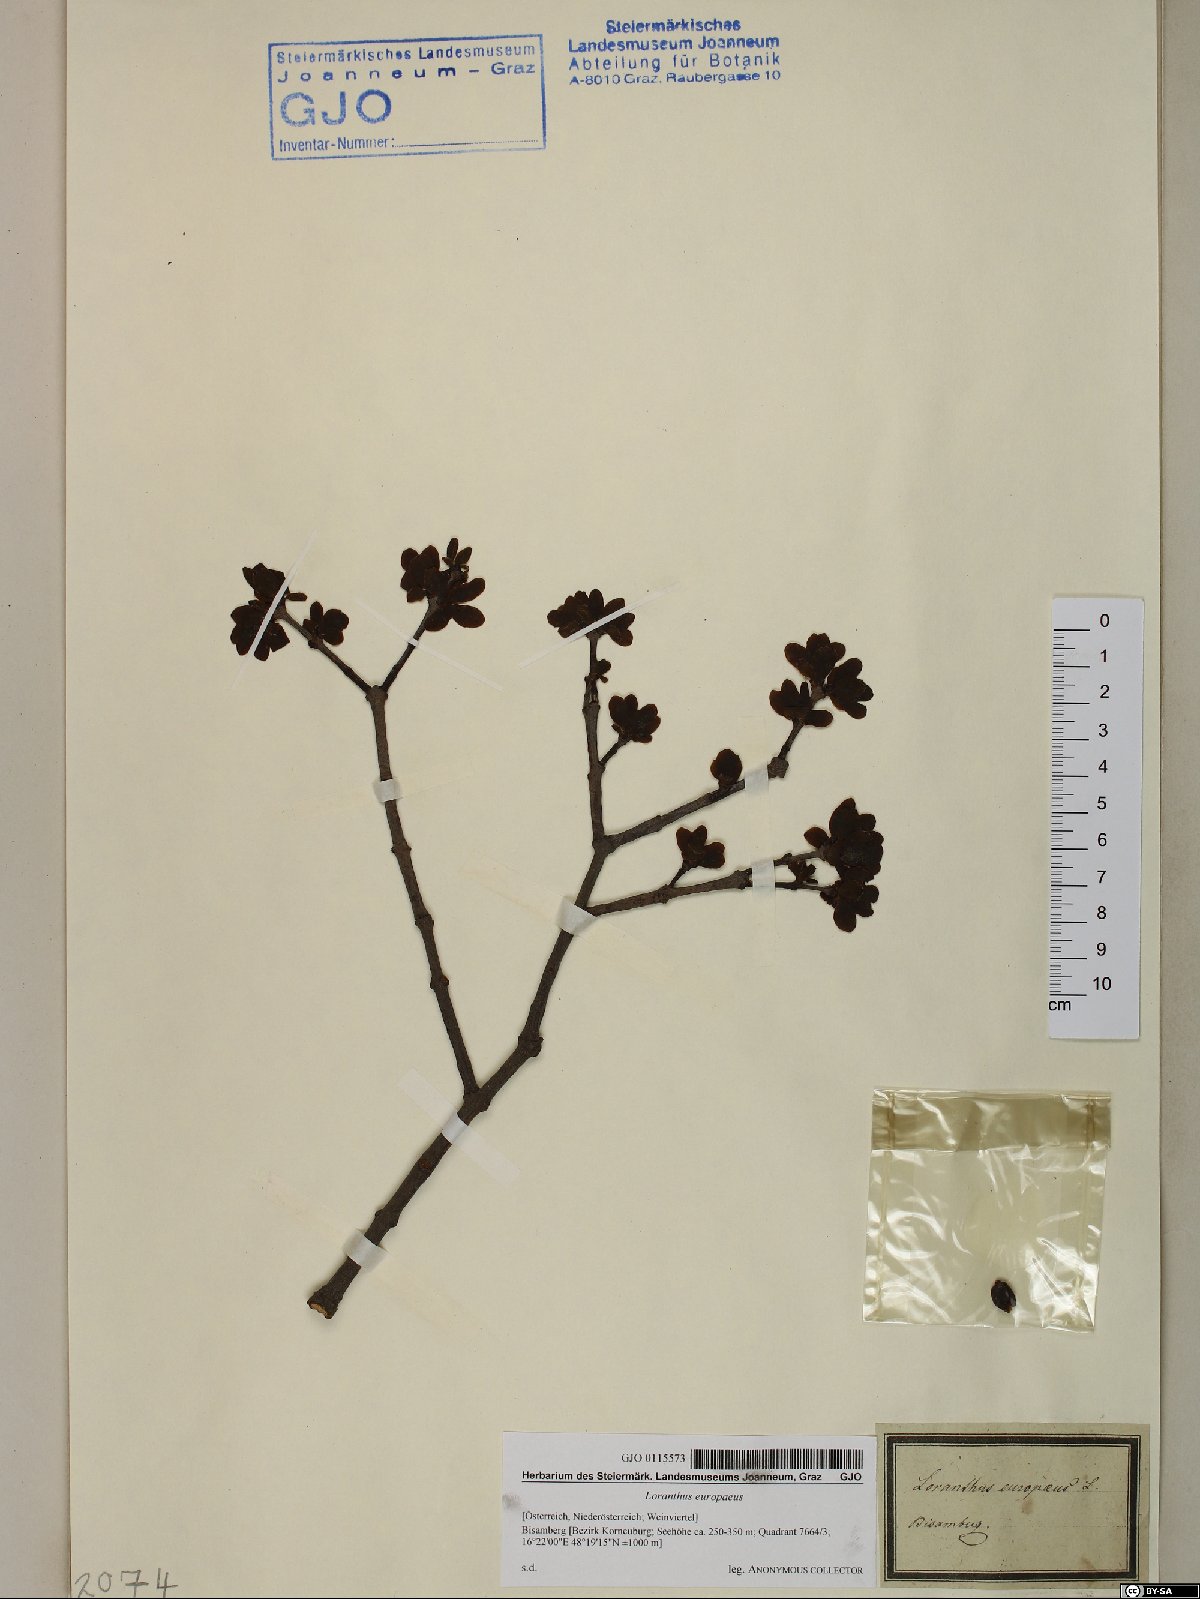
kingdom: Plantae
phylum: Tracheophyta
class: Magnoliopsida
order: Santalales
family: Loranthaceae
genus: Loranthus
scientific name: Loranthus europaeus
